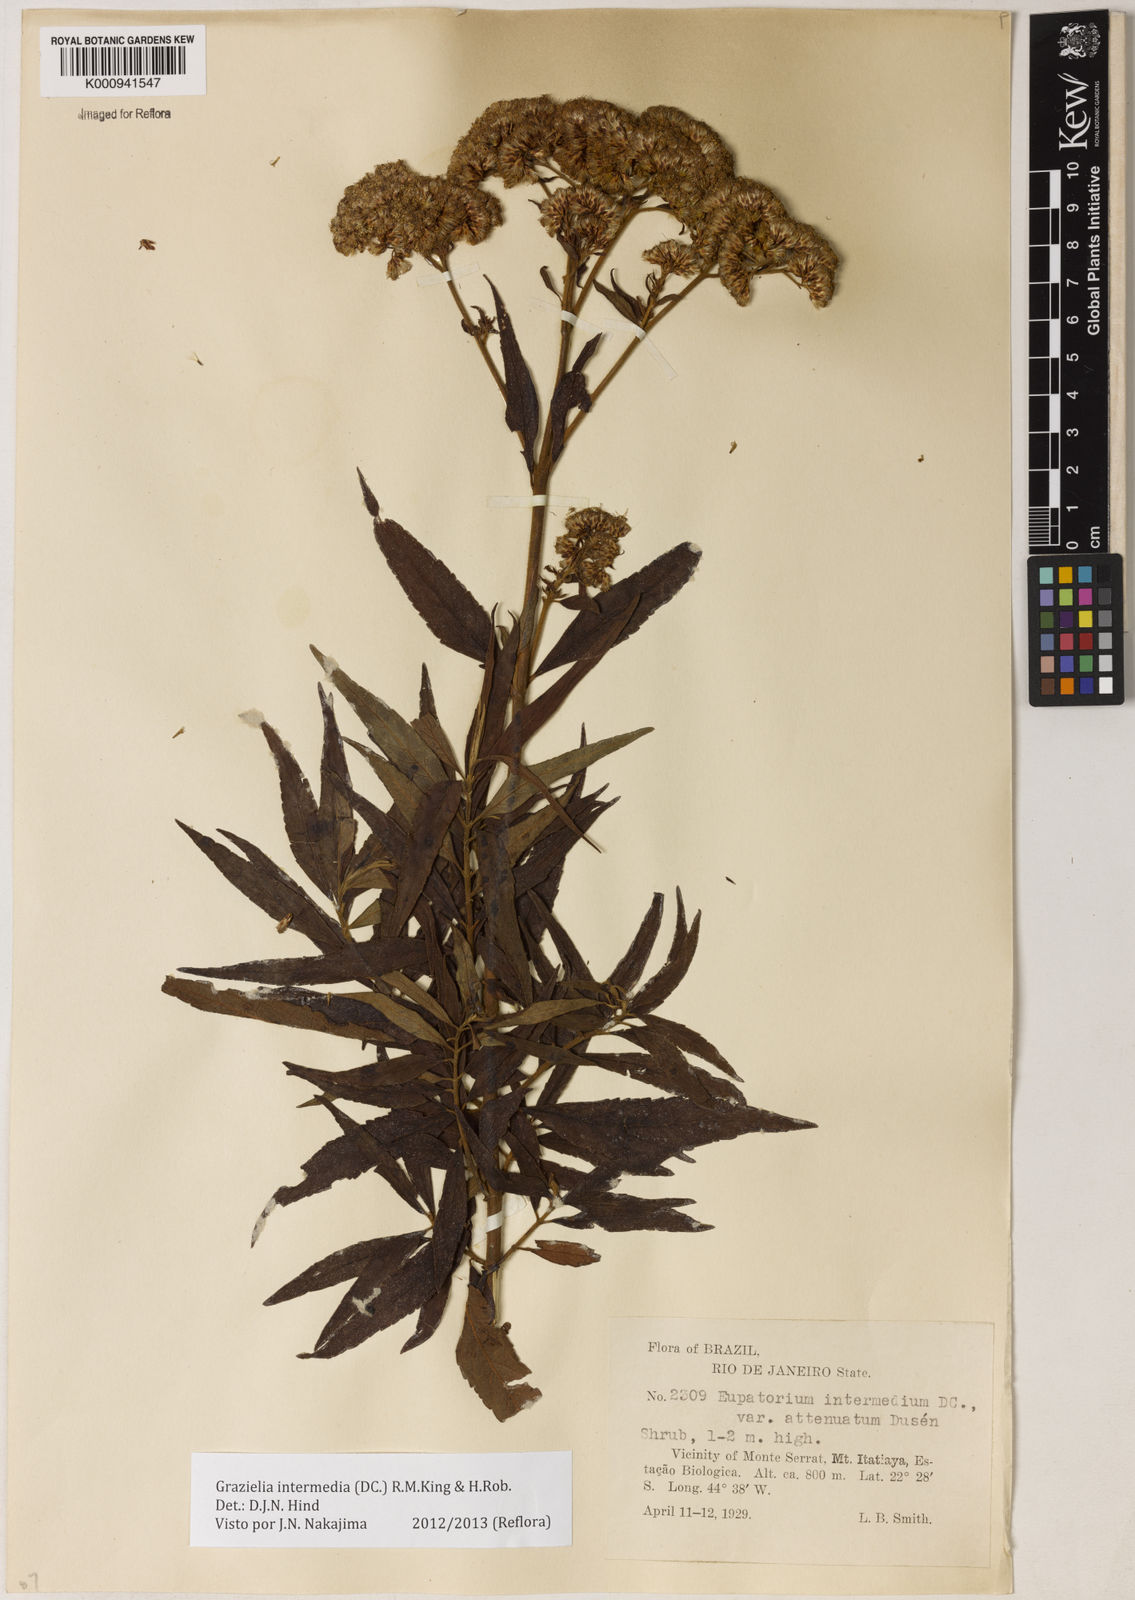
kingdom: Plantae
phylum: Tracheophyta
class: Magnoliopsida
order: Asterales
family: Asteraceae
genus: Grazielia
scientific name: Grazielia intermedia
